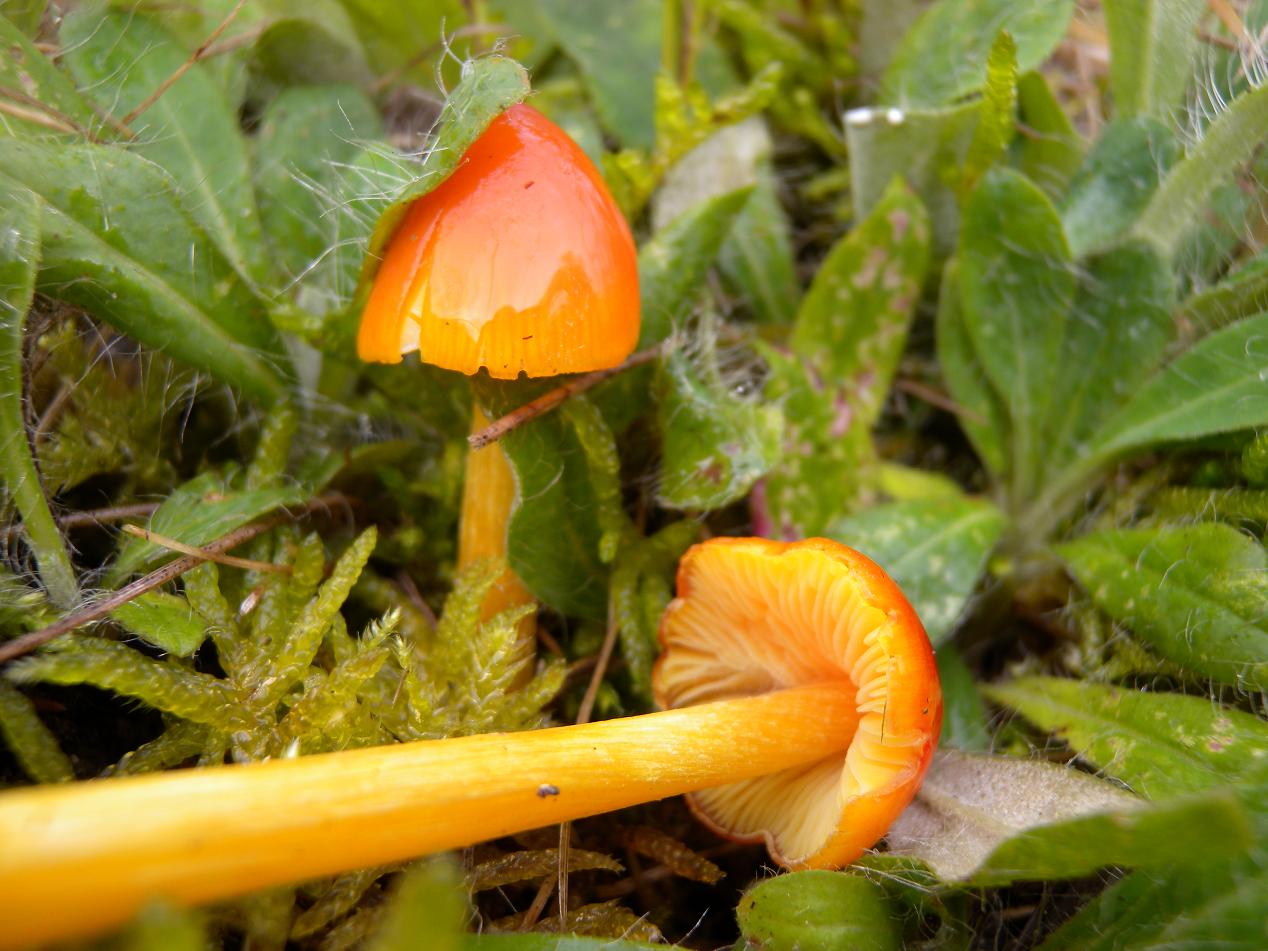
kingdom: Fungi
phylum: Basidiomycota
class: Agaricomycetes
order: Agaricales
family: Hygrophoraceae
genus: Hygrocybe
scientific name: Hygrocybe acutoconica
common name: spidspuklet vokshat
